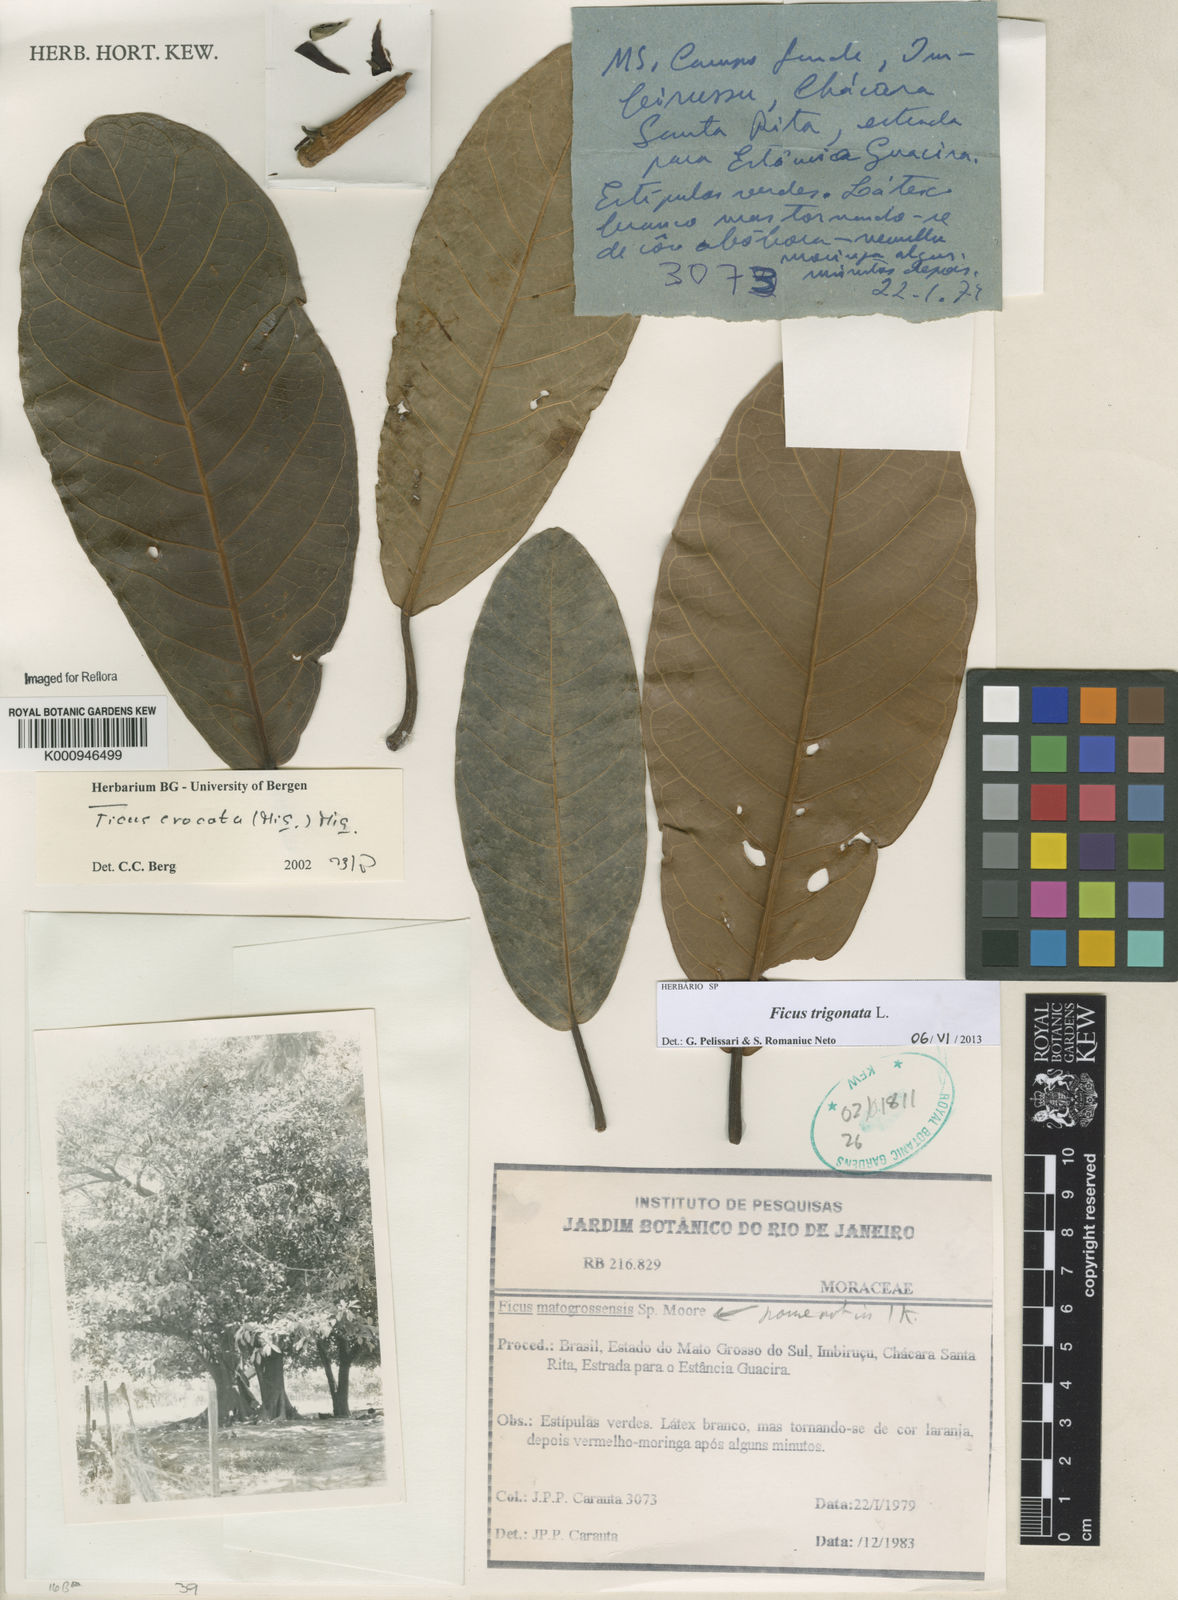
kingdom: Plantae
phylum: Tracheophyta
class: Magnoliopsida
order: Rosales
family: Moraceae
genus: Ficus
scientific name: Ficus trigonata
